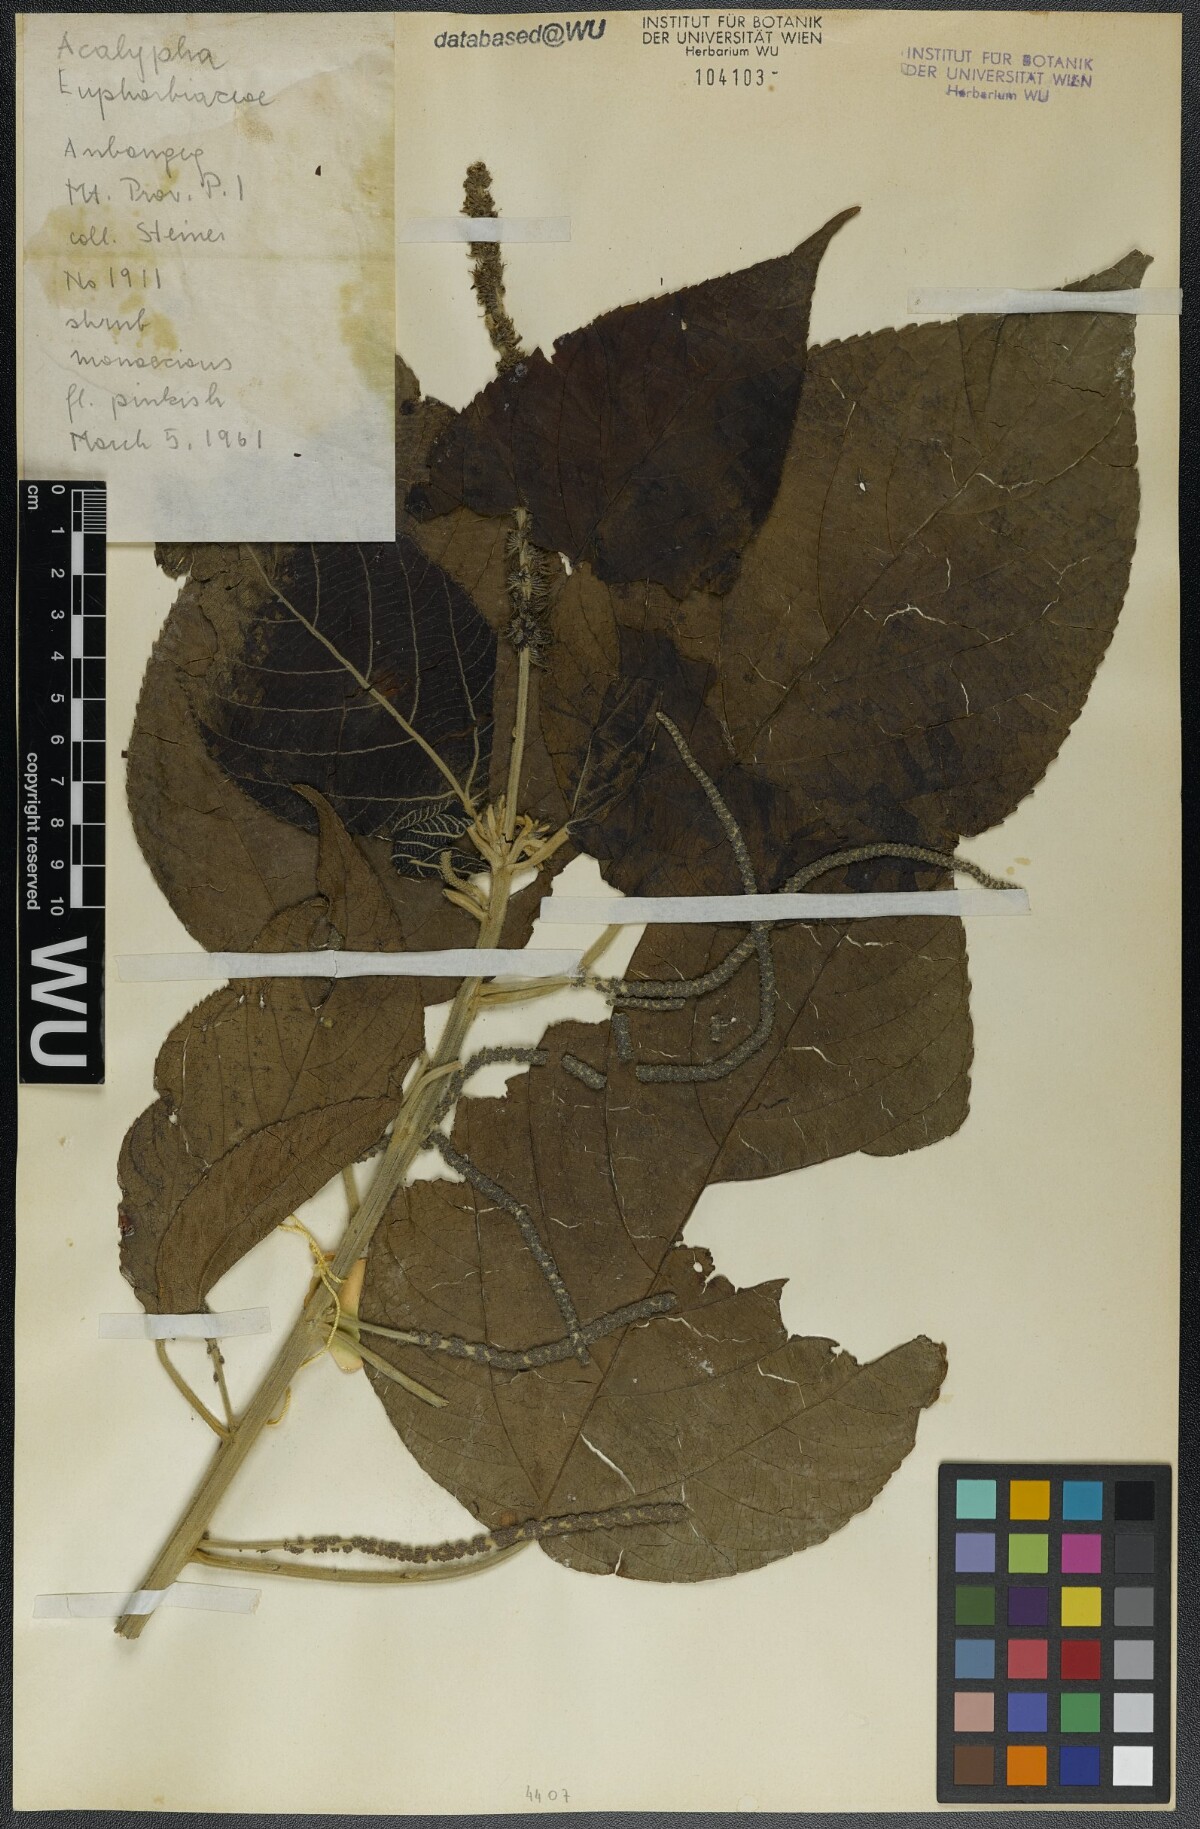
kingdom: Plantae
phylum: Tracheophyta
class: Magnoliopsida
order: Malpighiales
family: Euphorbiaceae
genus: Acalypha
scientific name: Acalypha
